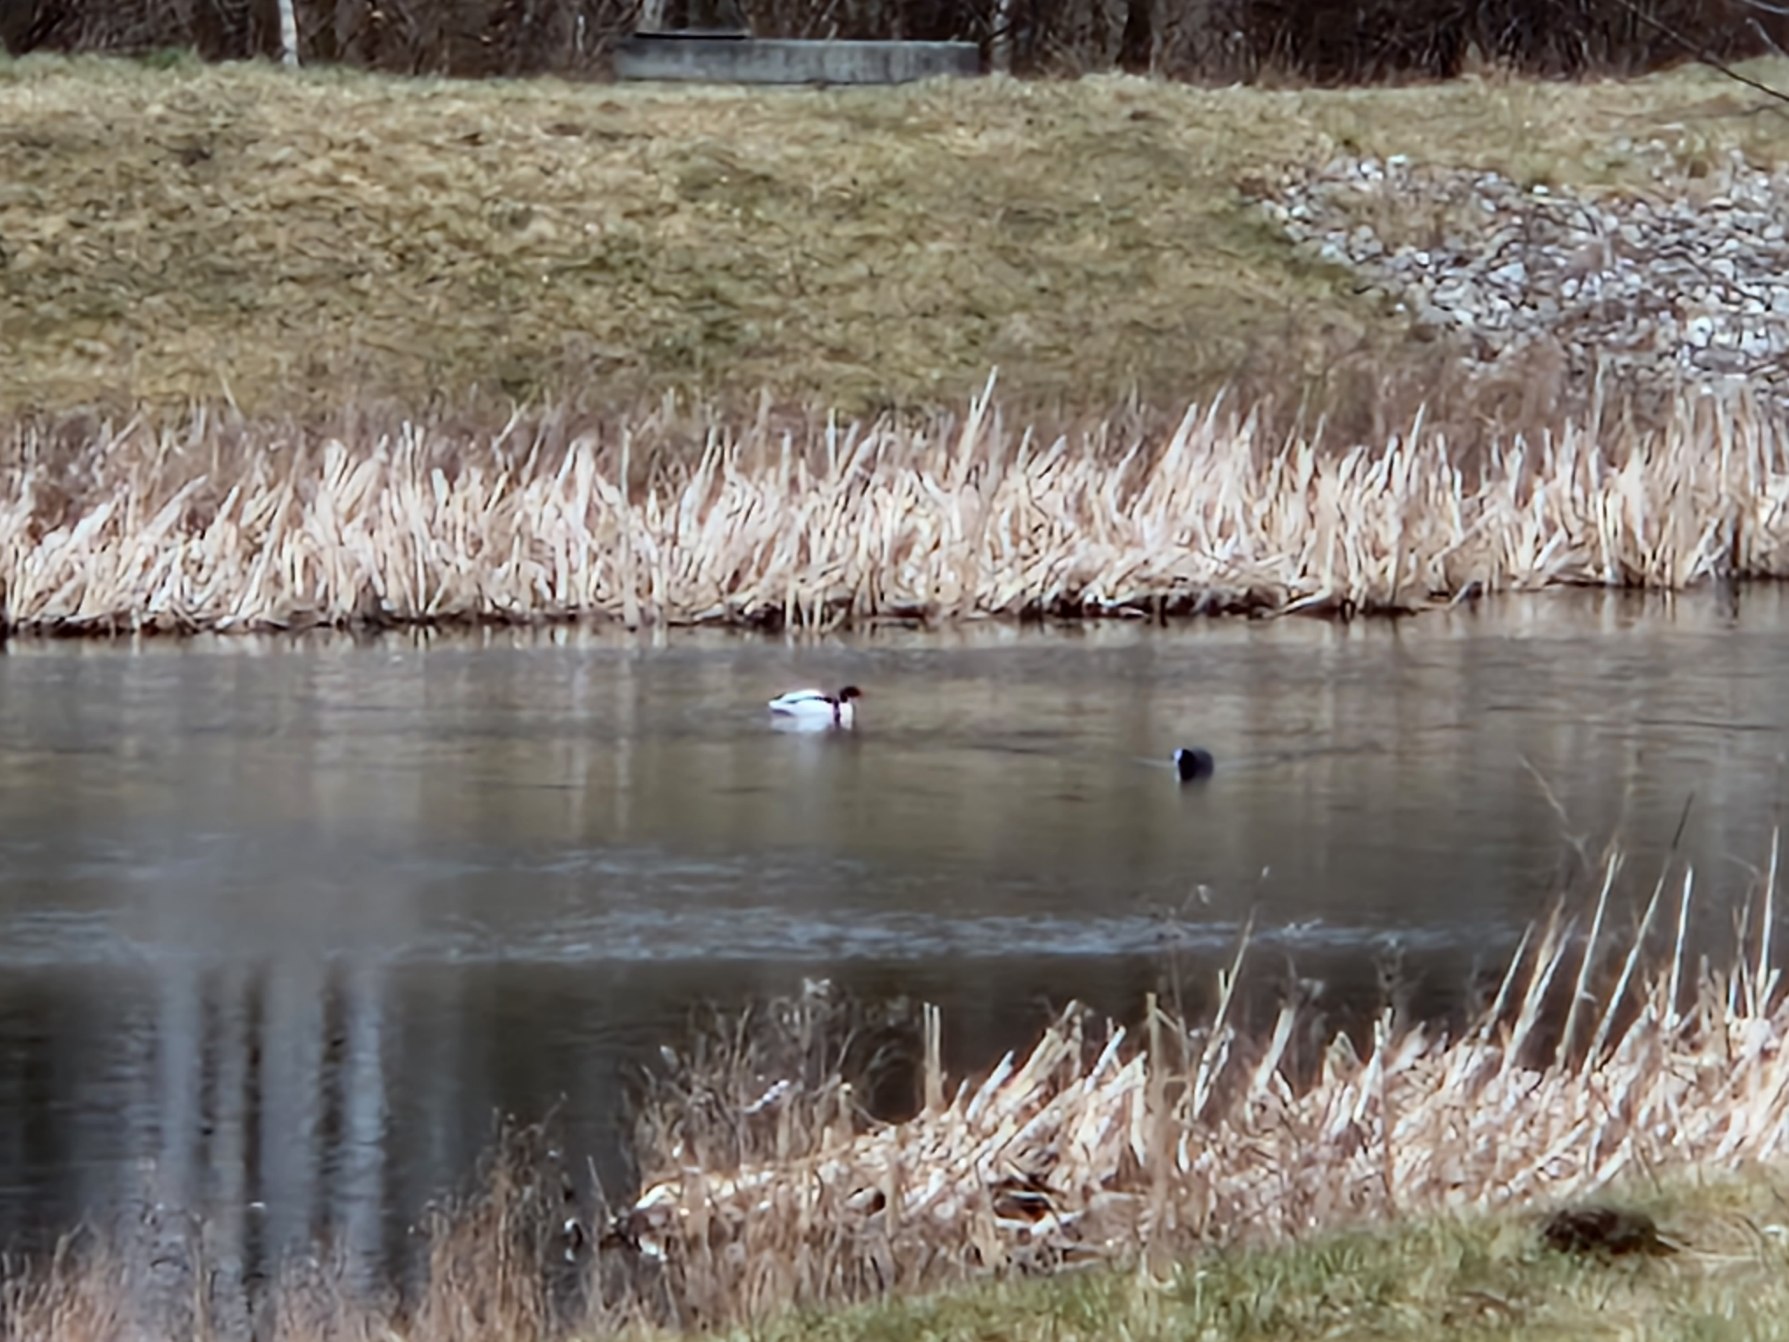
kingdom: Animalia
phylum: Chordata
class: Aves
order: Gruiformes
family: Rallidae
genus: Fulica
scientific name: Fulica atra
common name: Blishøne
